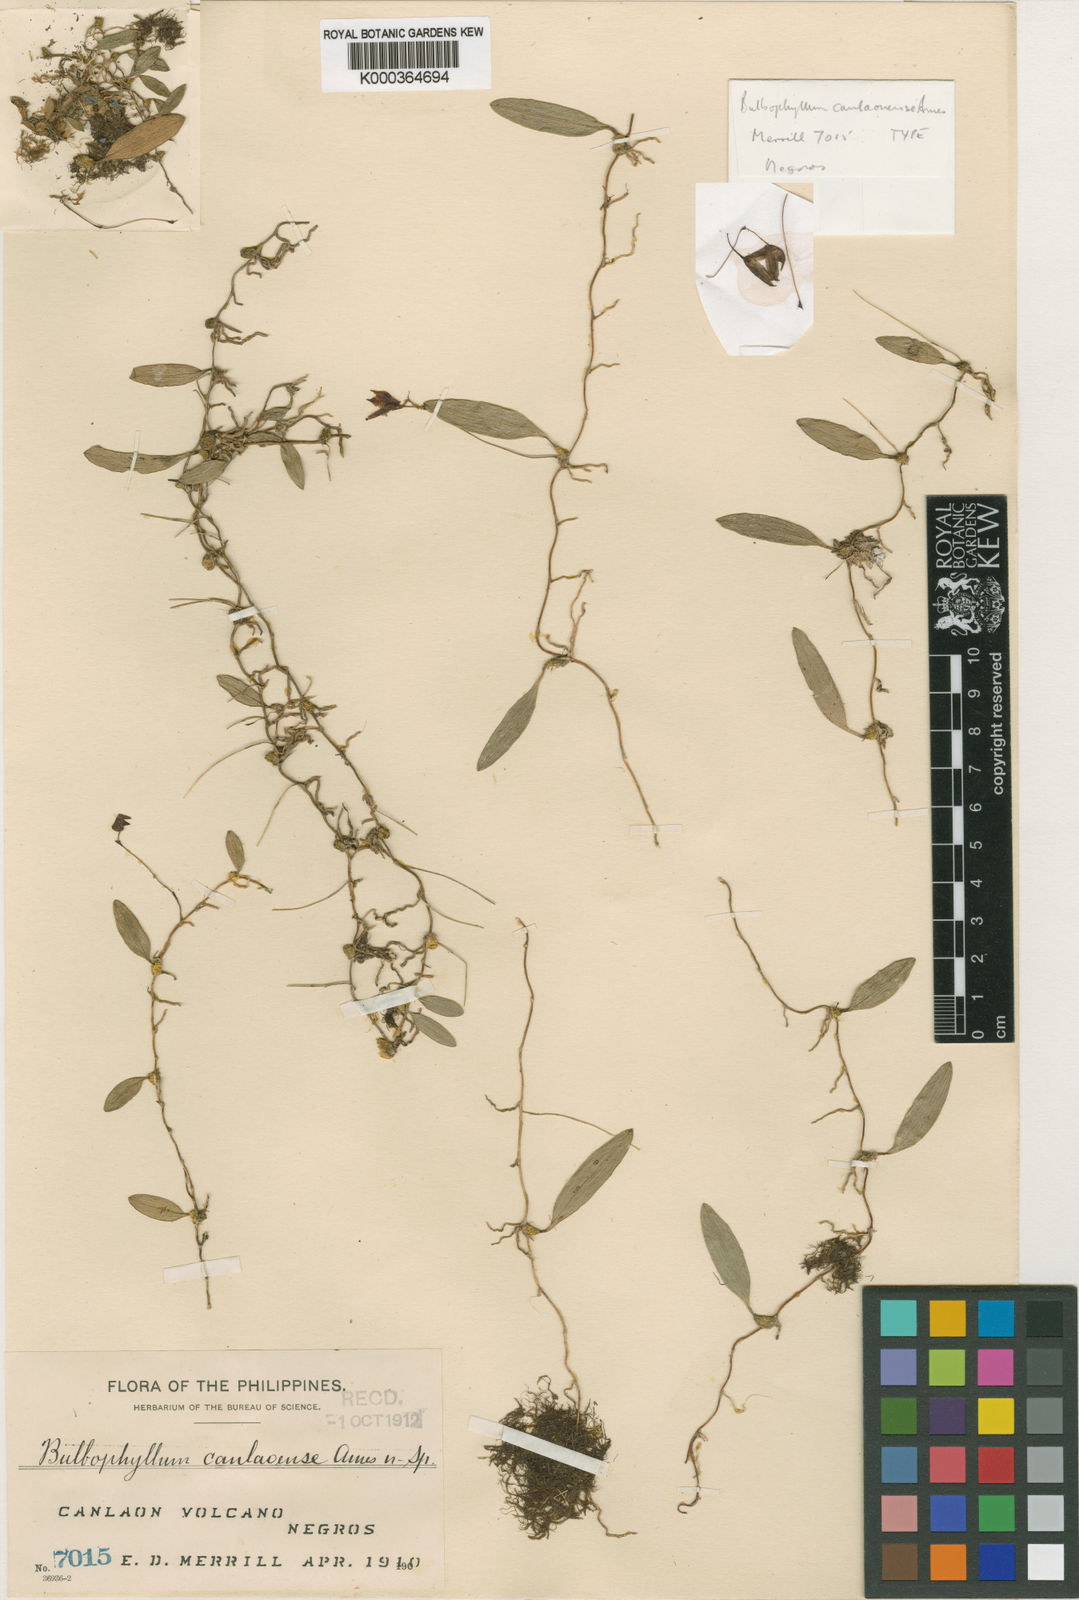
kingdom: Plantae
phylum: Tracheophyta
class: Liliopsida
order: Asparagales
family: Orchidaceae
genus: Bulbophyllum
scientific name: Bulbophyllum canlaonense
